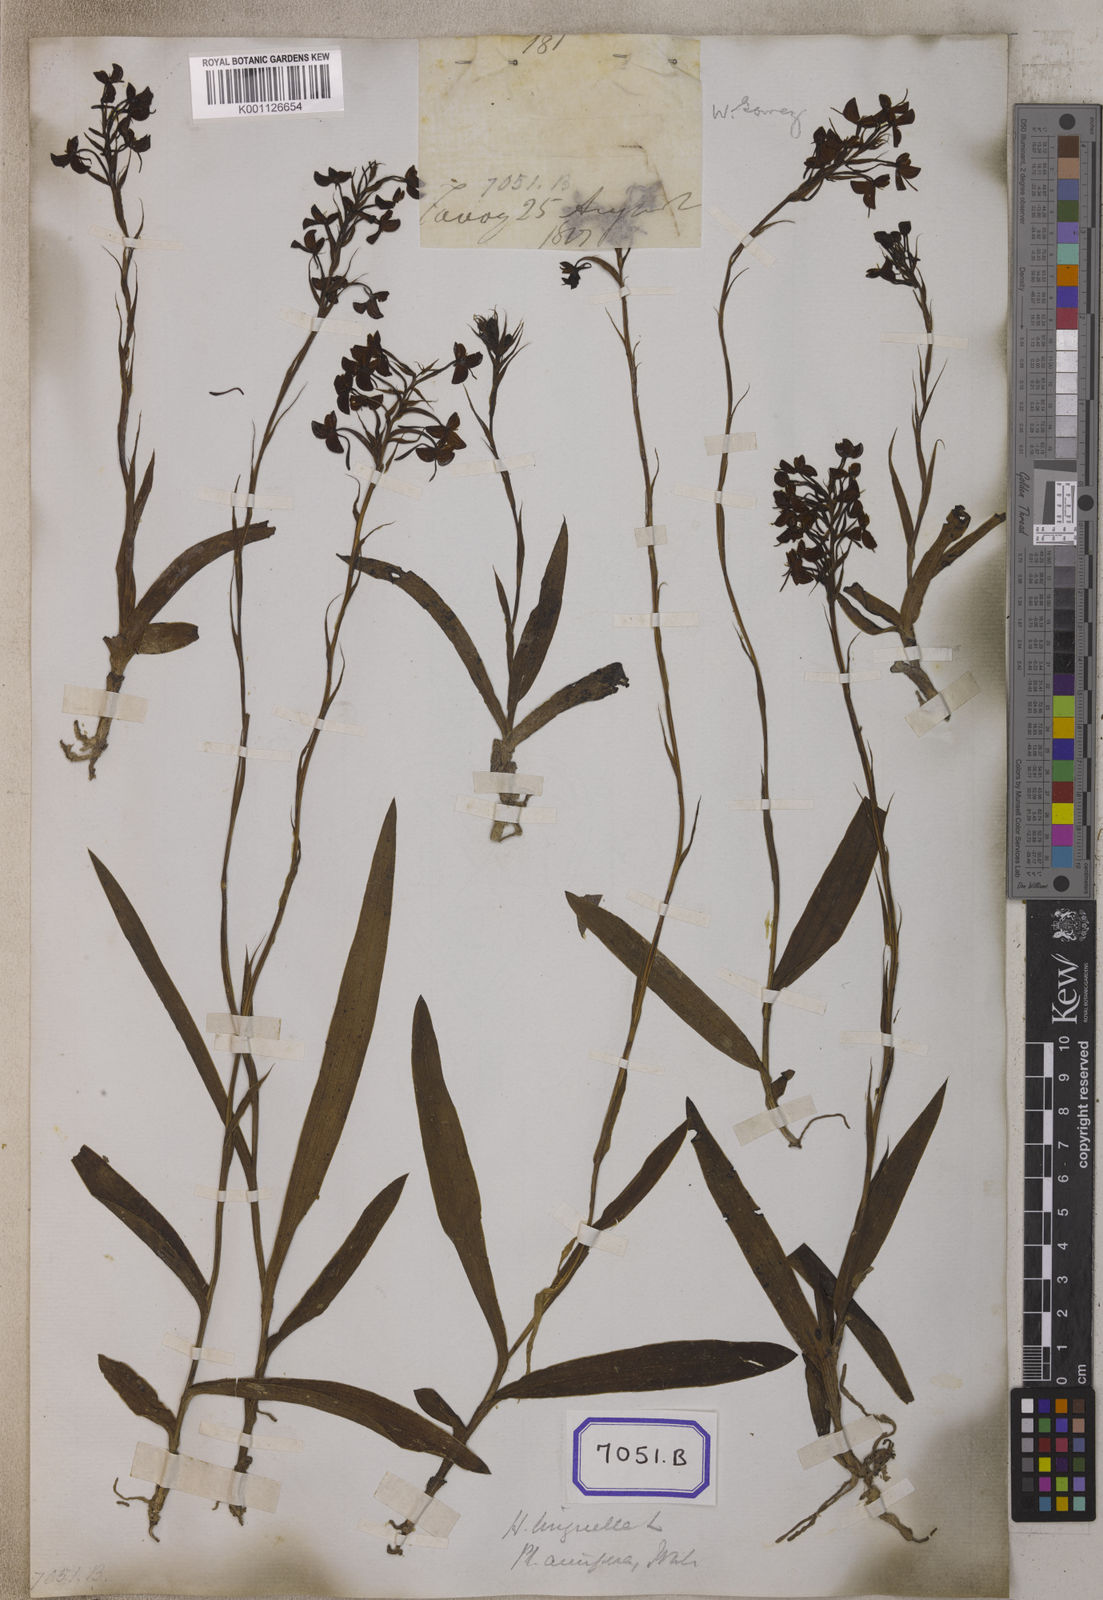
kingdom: Plantae
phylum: Tracheophyta
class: Liliopsida
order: Asparagales
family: Orchidaceae
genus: Platanthera
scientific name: Platanthera
